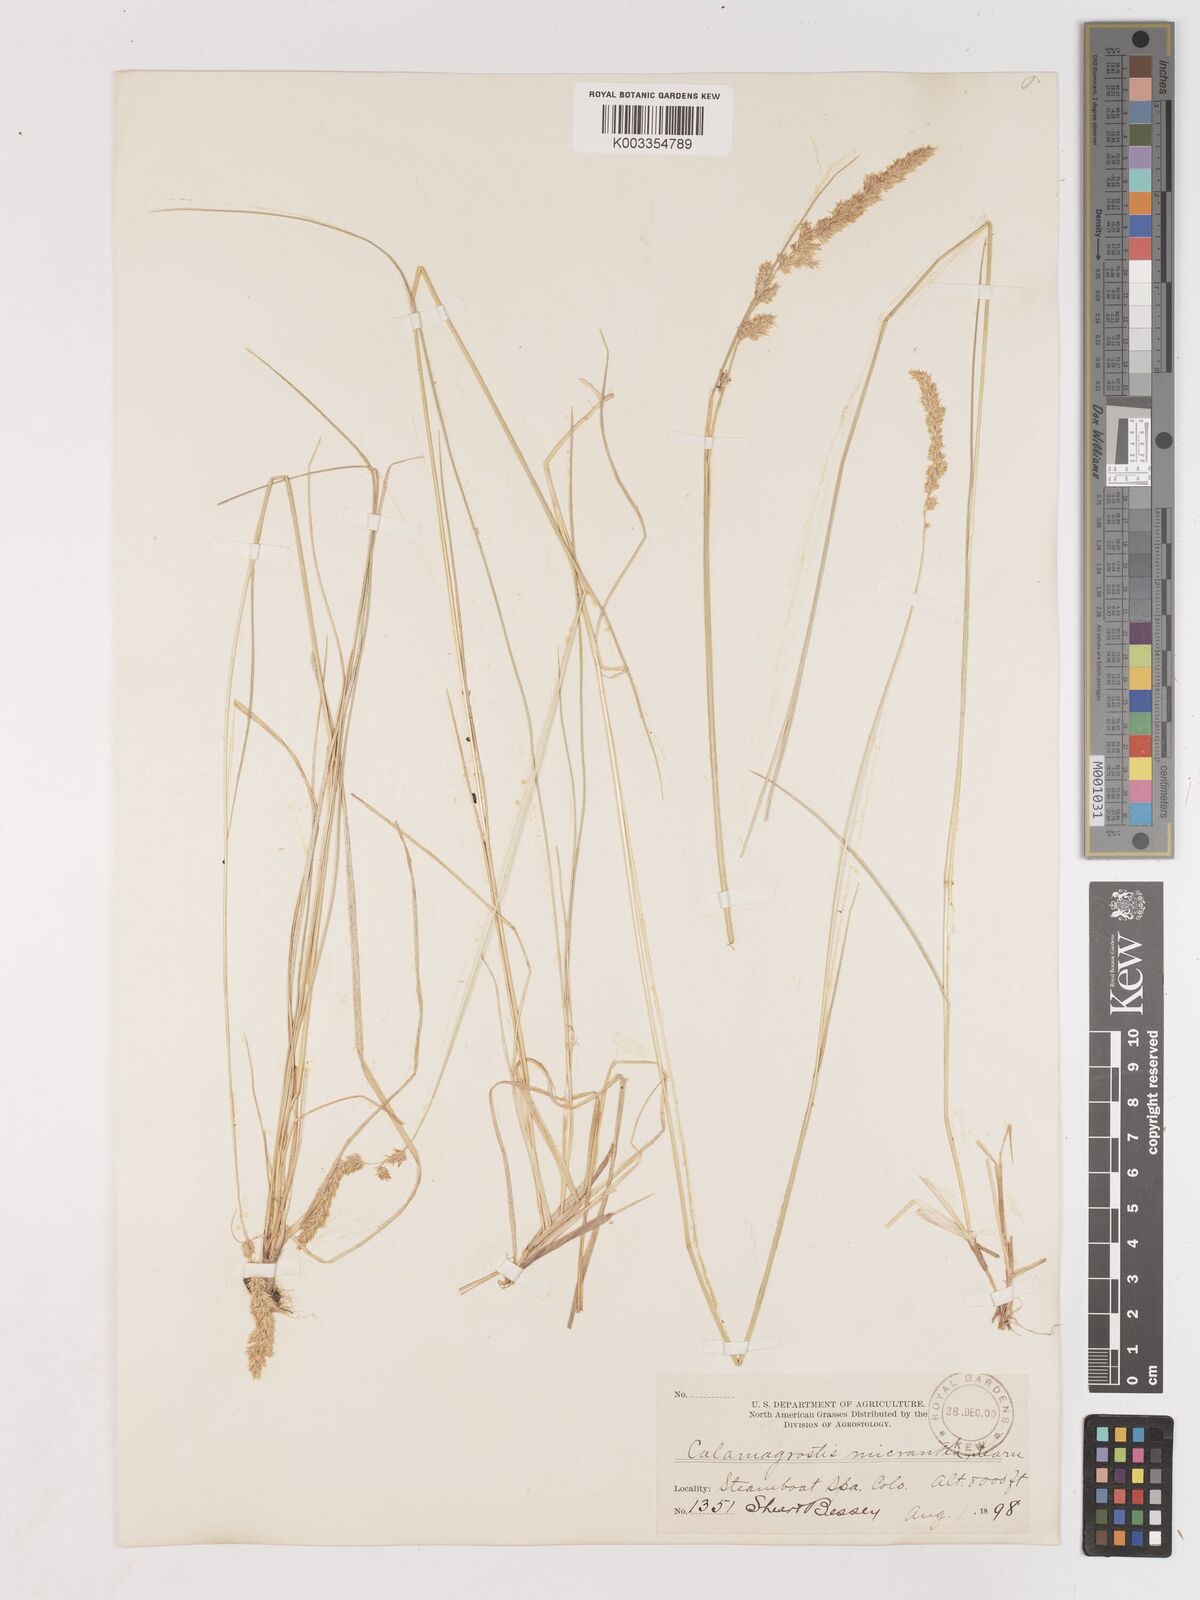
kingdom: Plantae
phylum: Tracheophyta
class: Liliopsida
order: Poales
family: Poaceae
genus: Cinnagrostis
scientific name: Cinnagrostis recta
